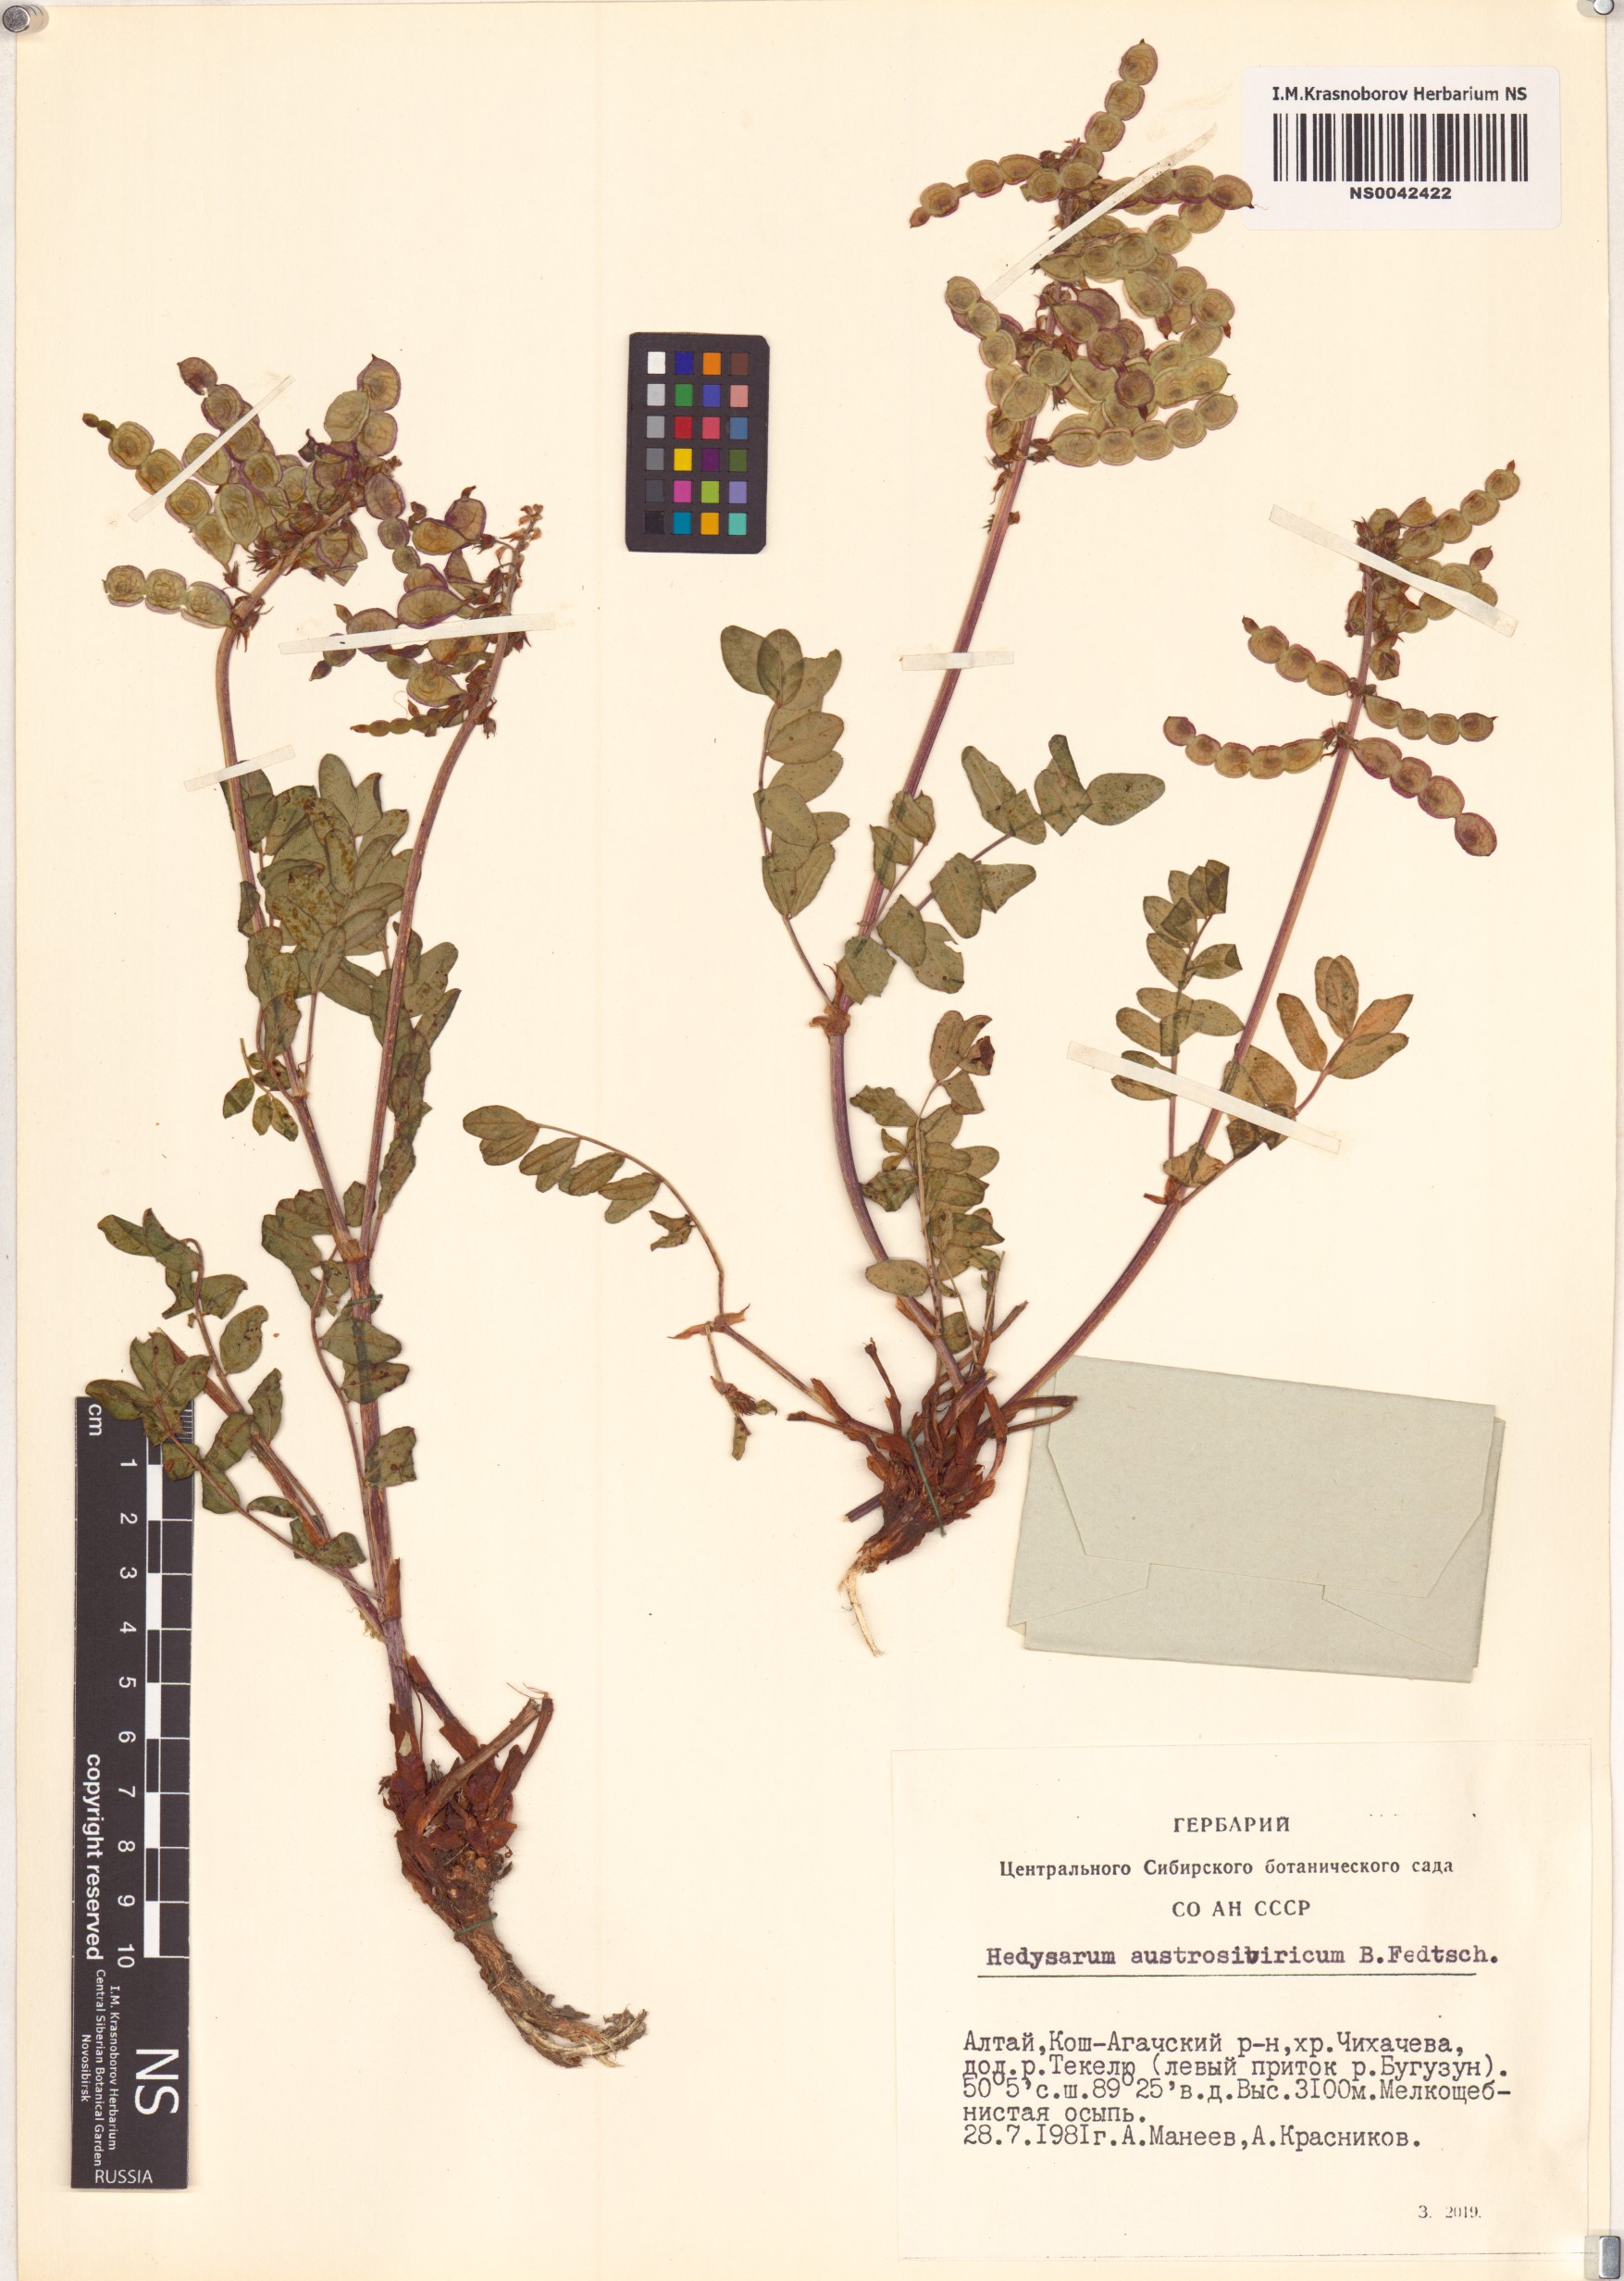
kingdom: Plantae
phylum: Tracheophyta
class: Magnoliopsida
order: Fabales
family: Fabaceae
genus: Hedysarum
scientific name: Hedysarum neglectum
